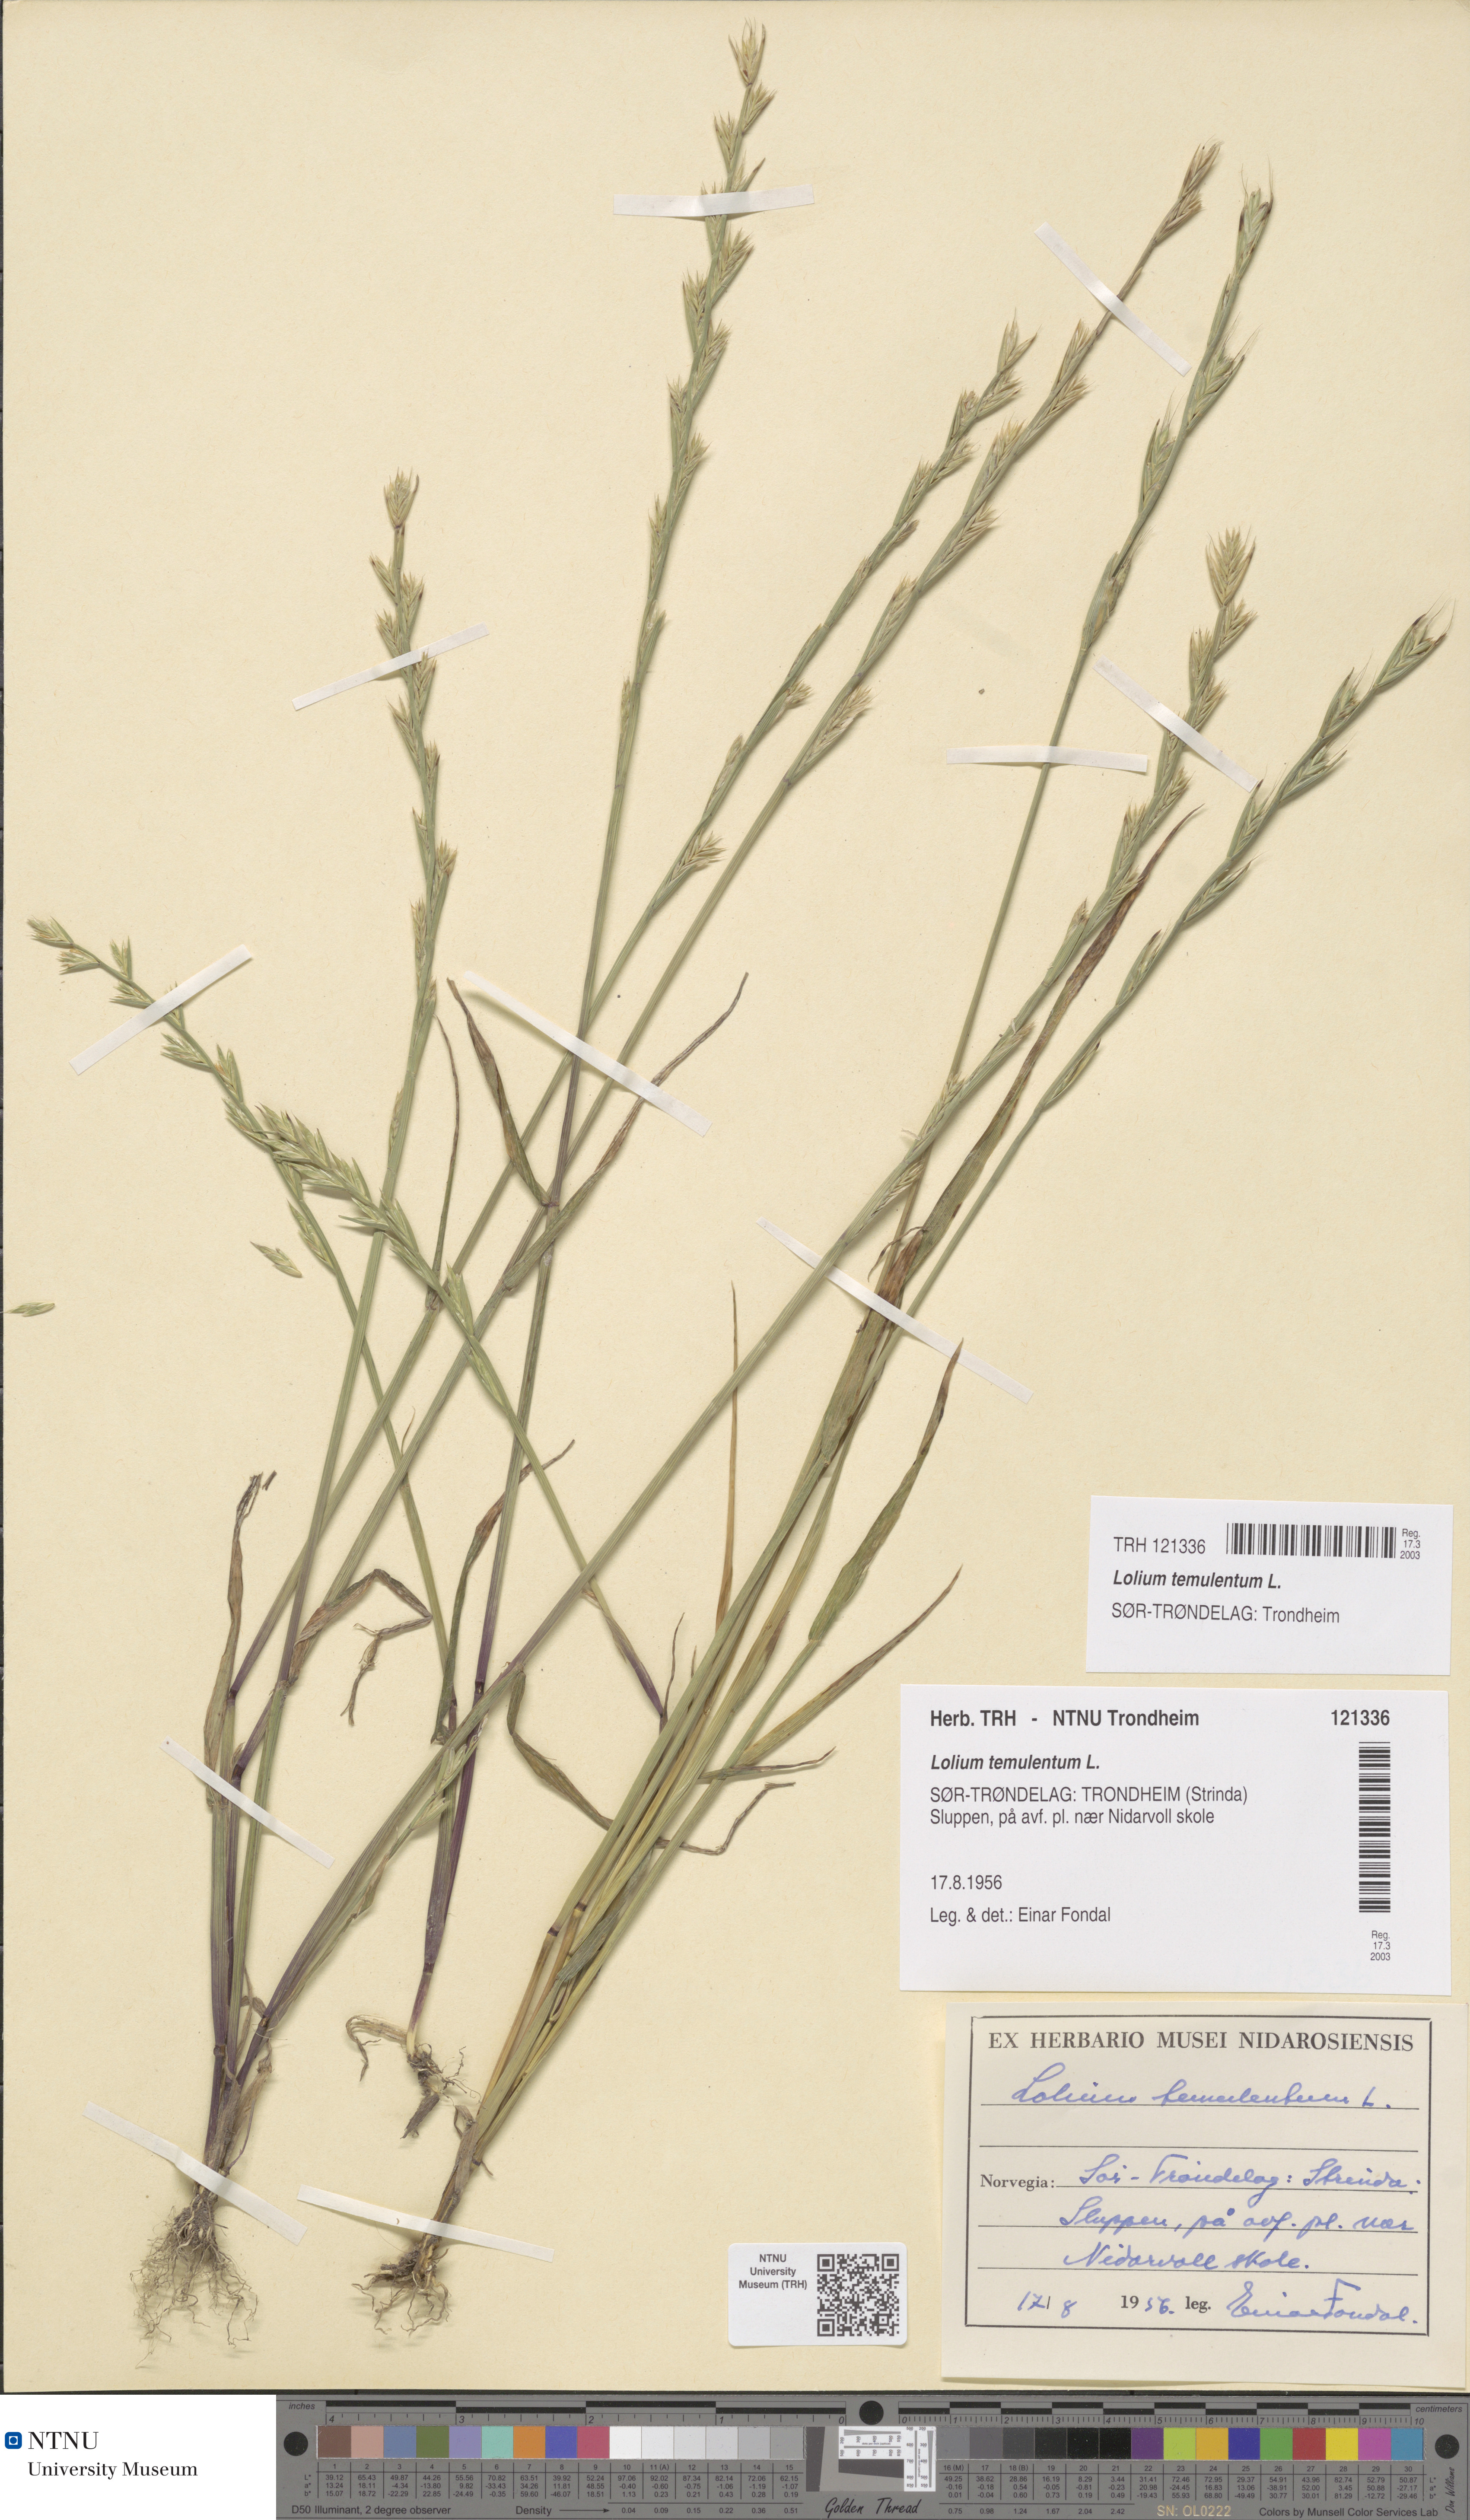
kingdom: Plantae
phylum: Tracheophyta
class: Liliopsida
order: Poales
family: Poaceae
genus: Lolium
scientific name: Lolium temulentum
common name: Darnel
